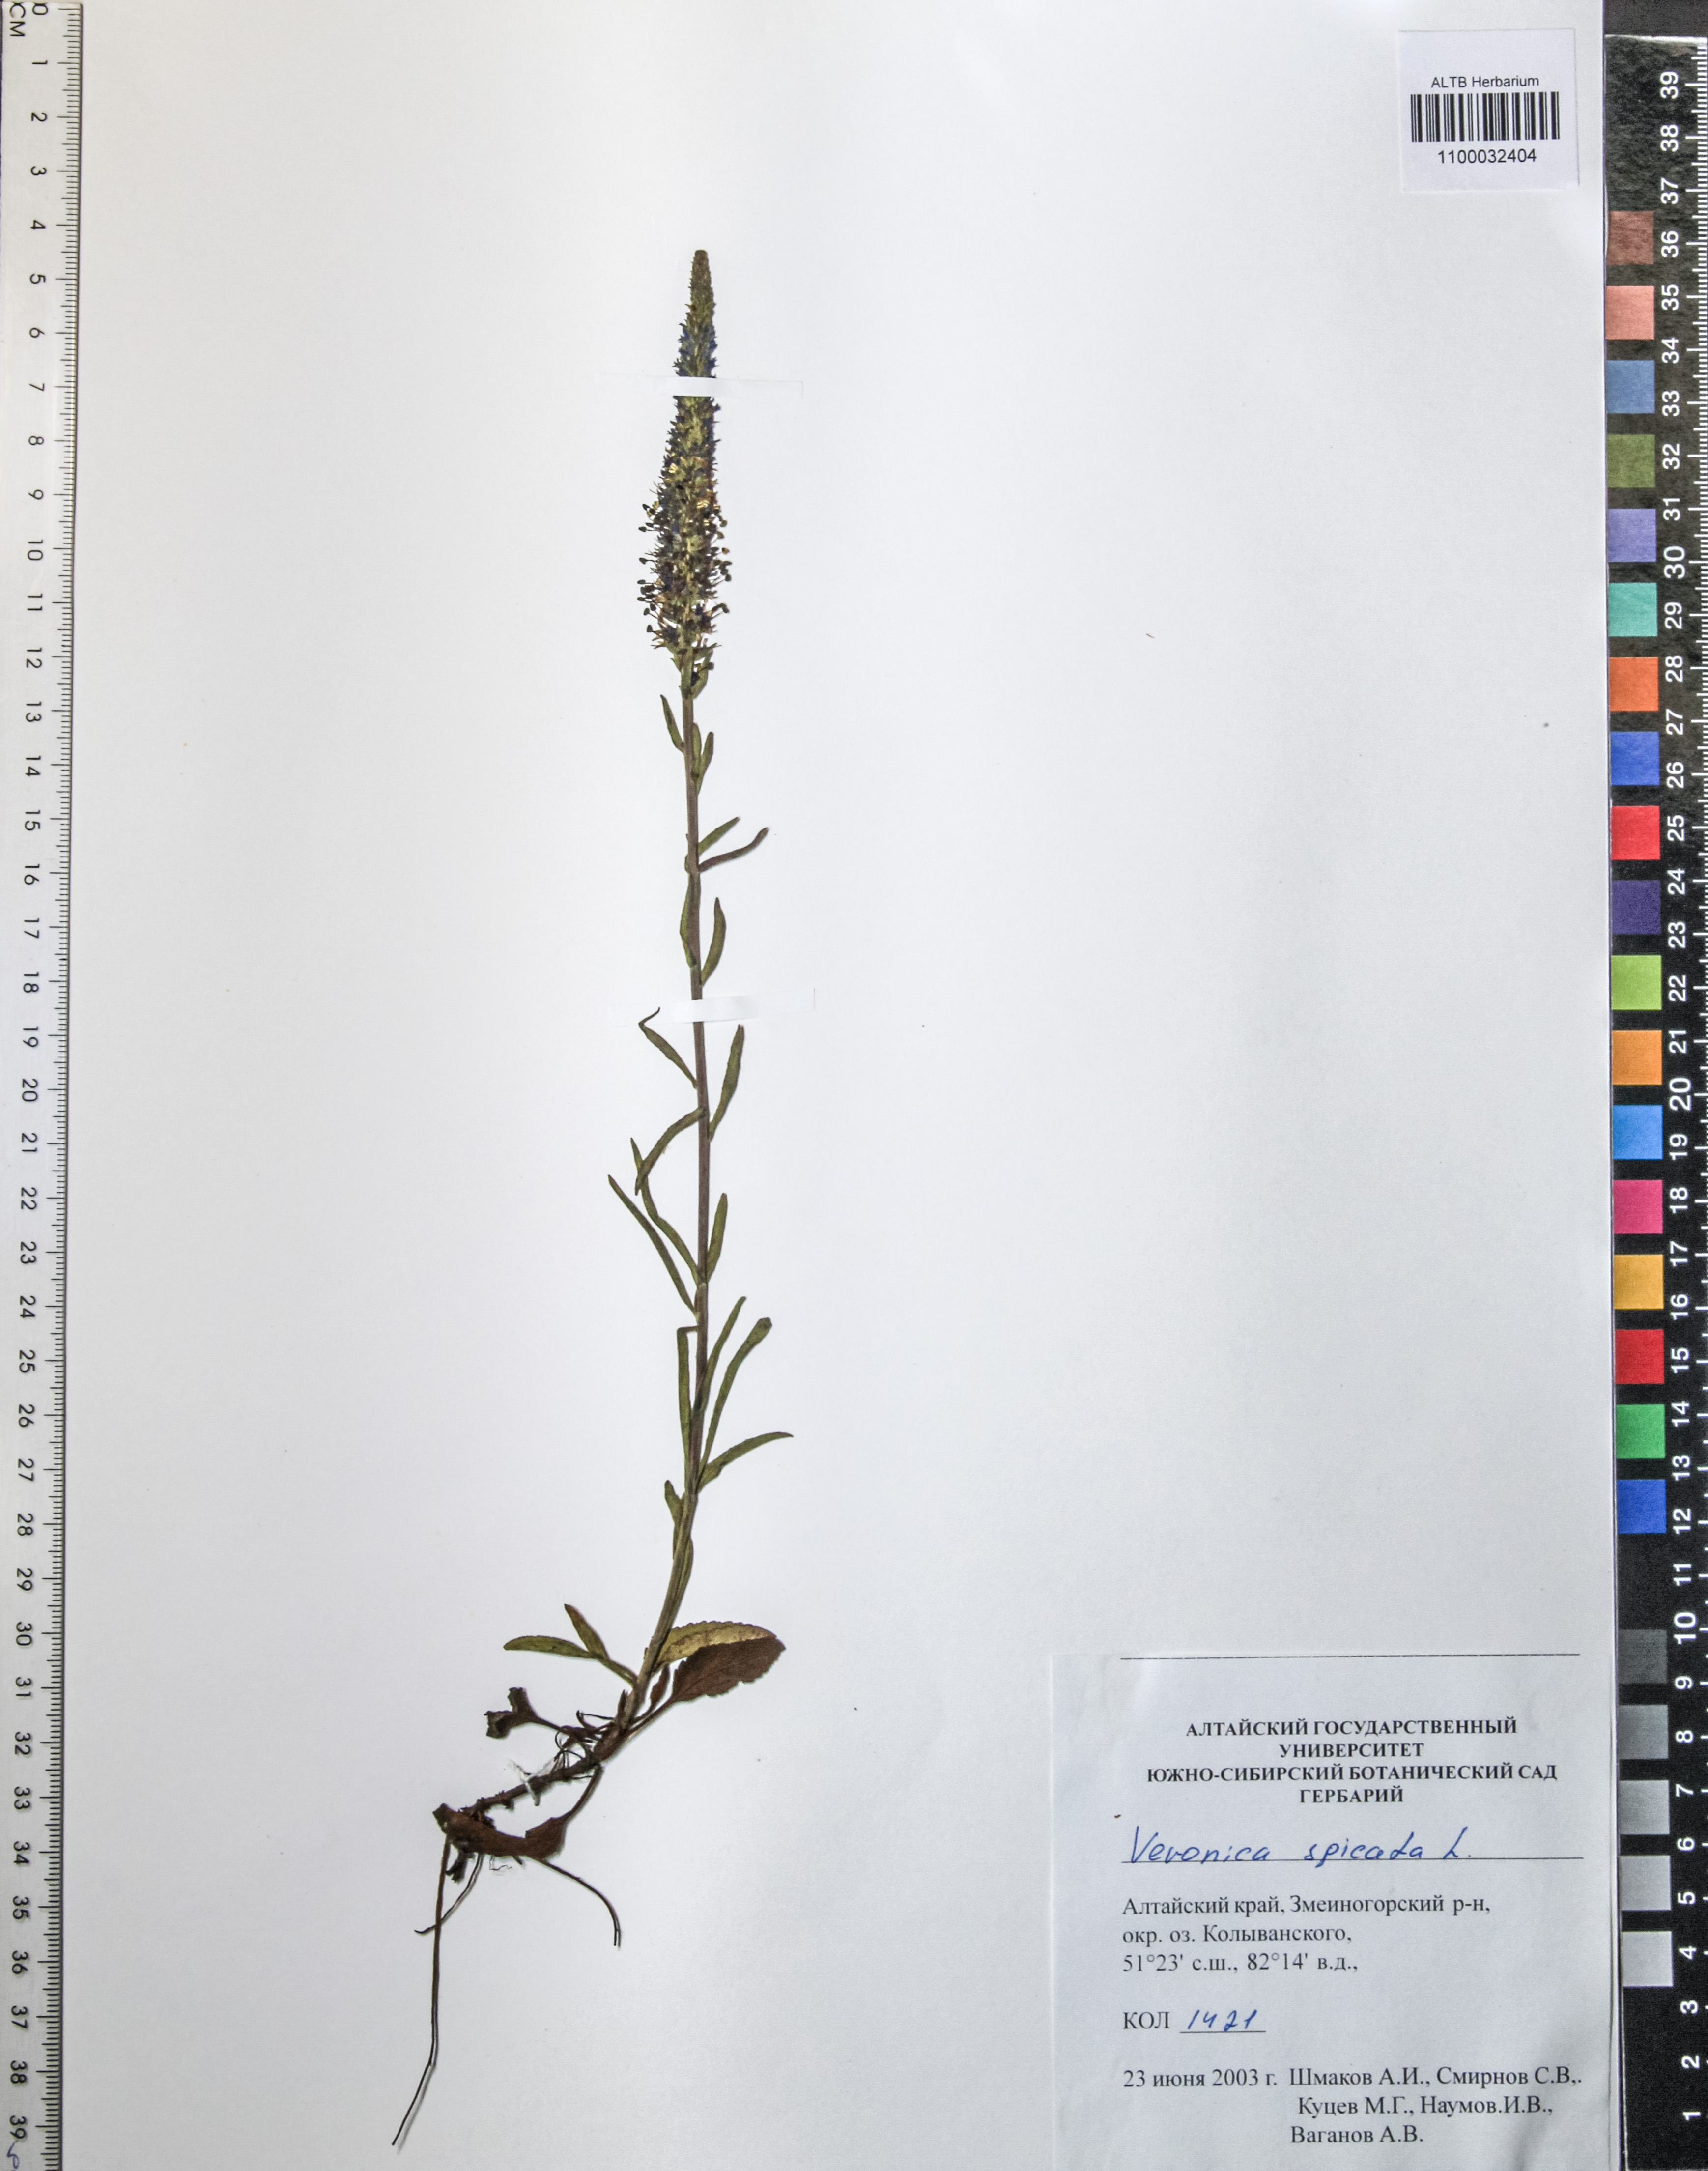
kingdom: Plantae
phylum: Tracheophyta
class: Magnoliopsida
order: Lamiales
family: Plantaginaceae
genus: Veronica
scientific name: Veronica chamaedrys
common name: Germander speedwell
